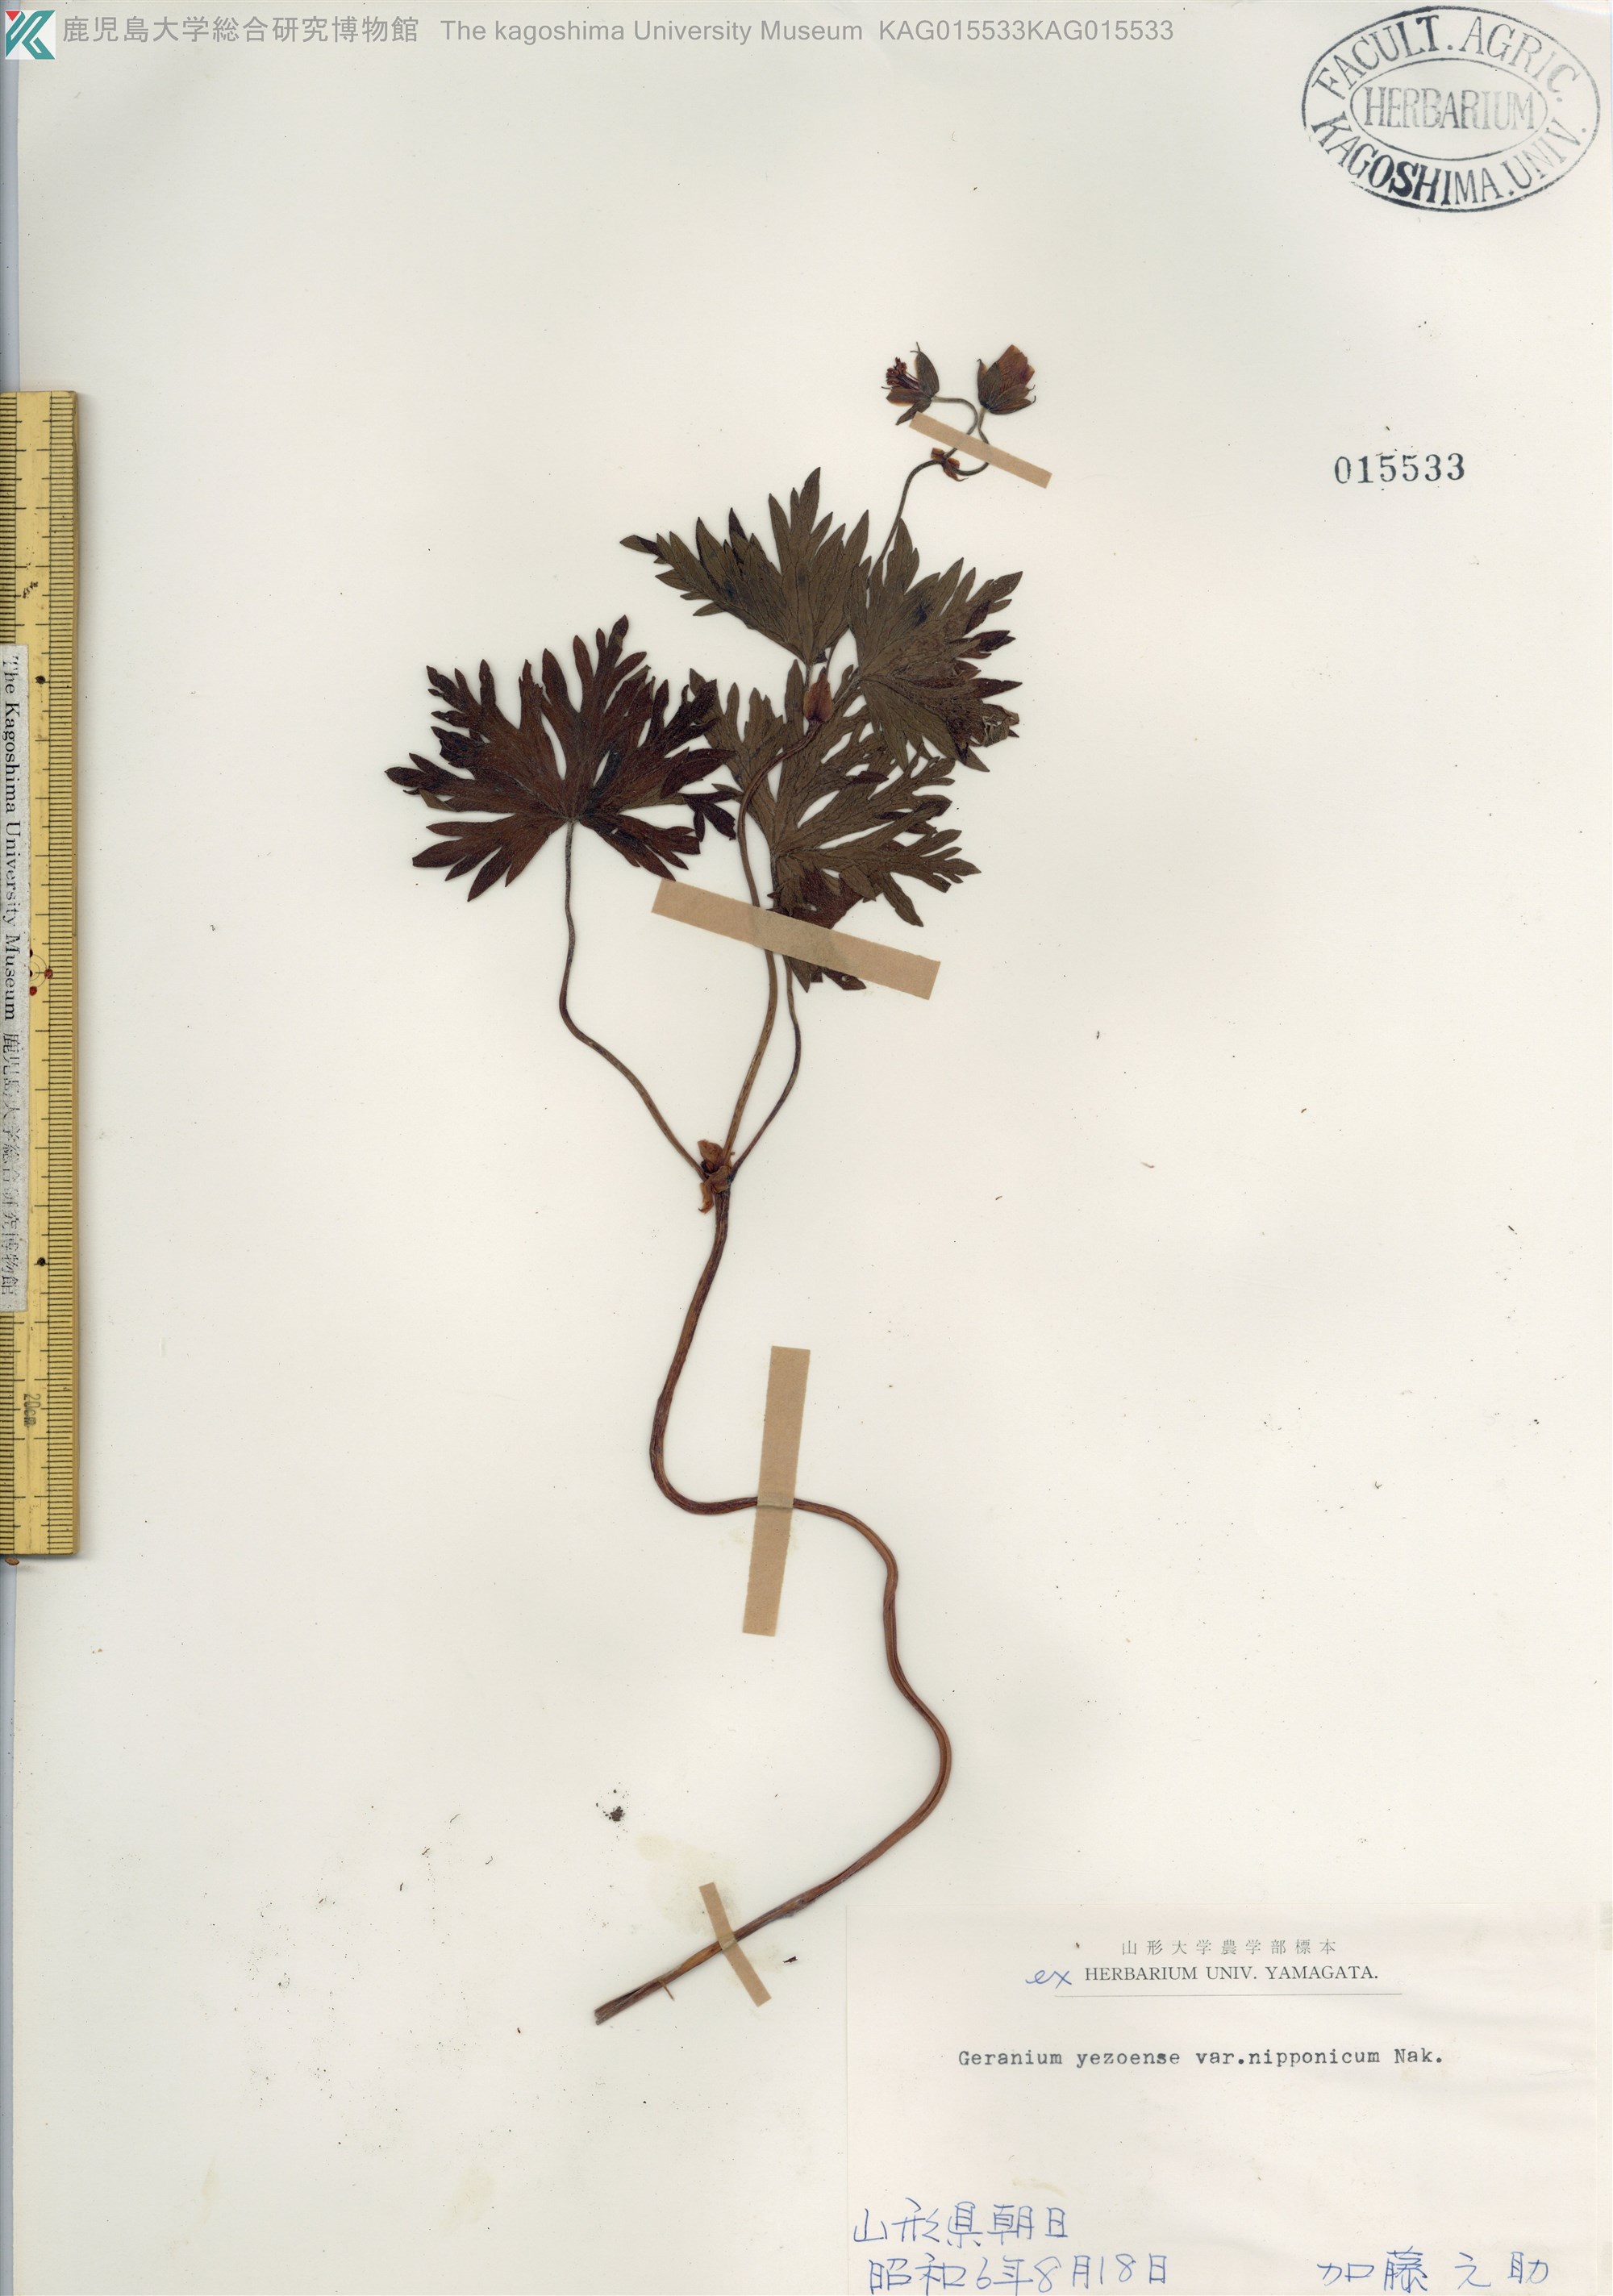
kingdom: Plantae
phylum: Tracheophyta
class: Magnoliopsida
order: Geraniales
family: Geraniaceae
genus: Geranium
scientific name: Geranium yesoense
